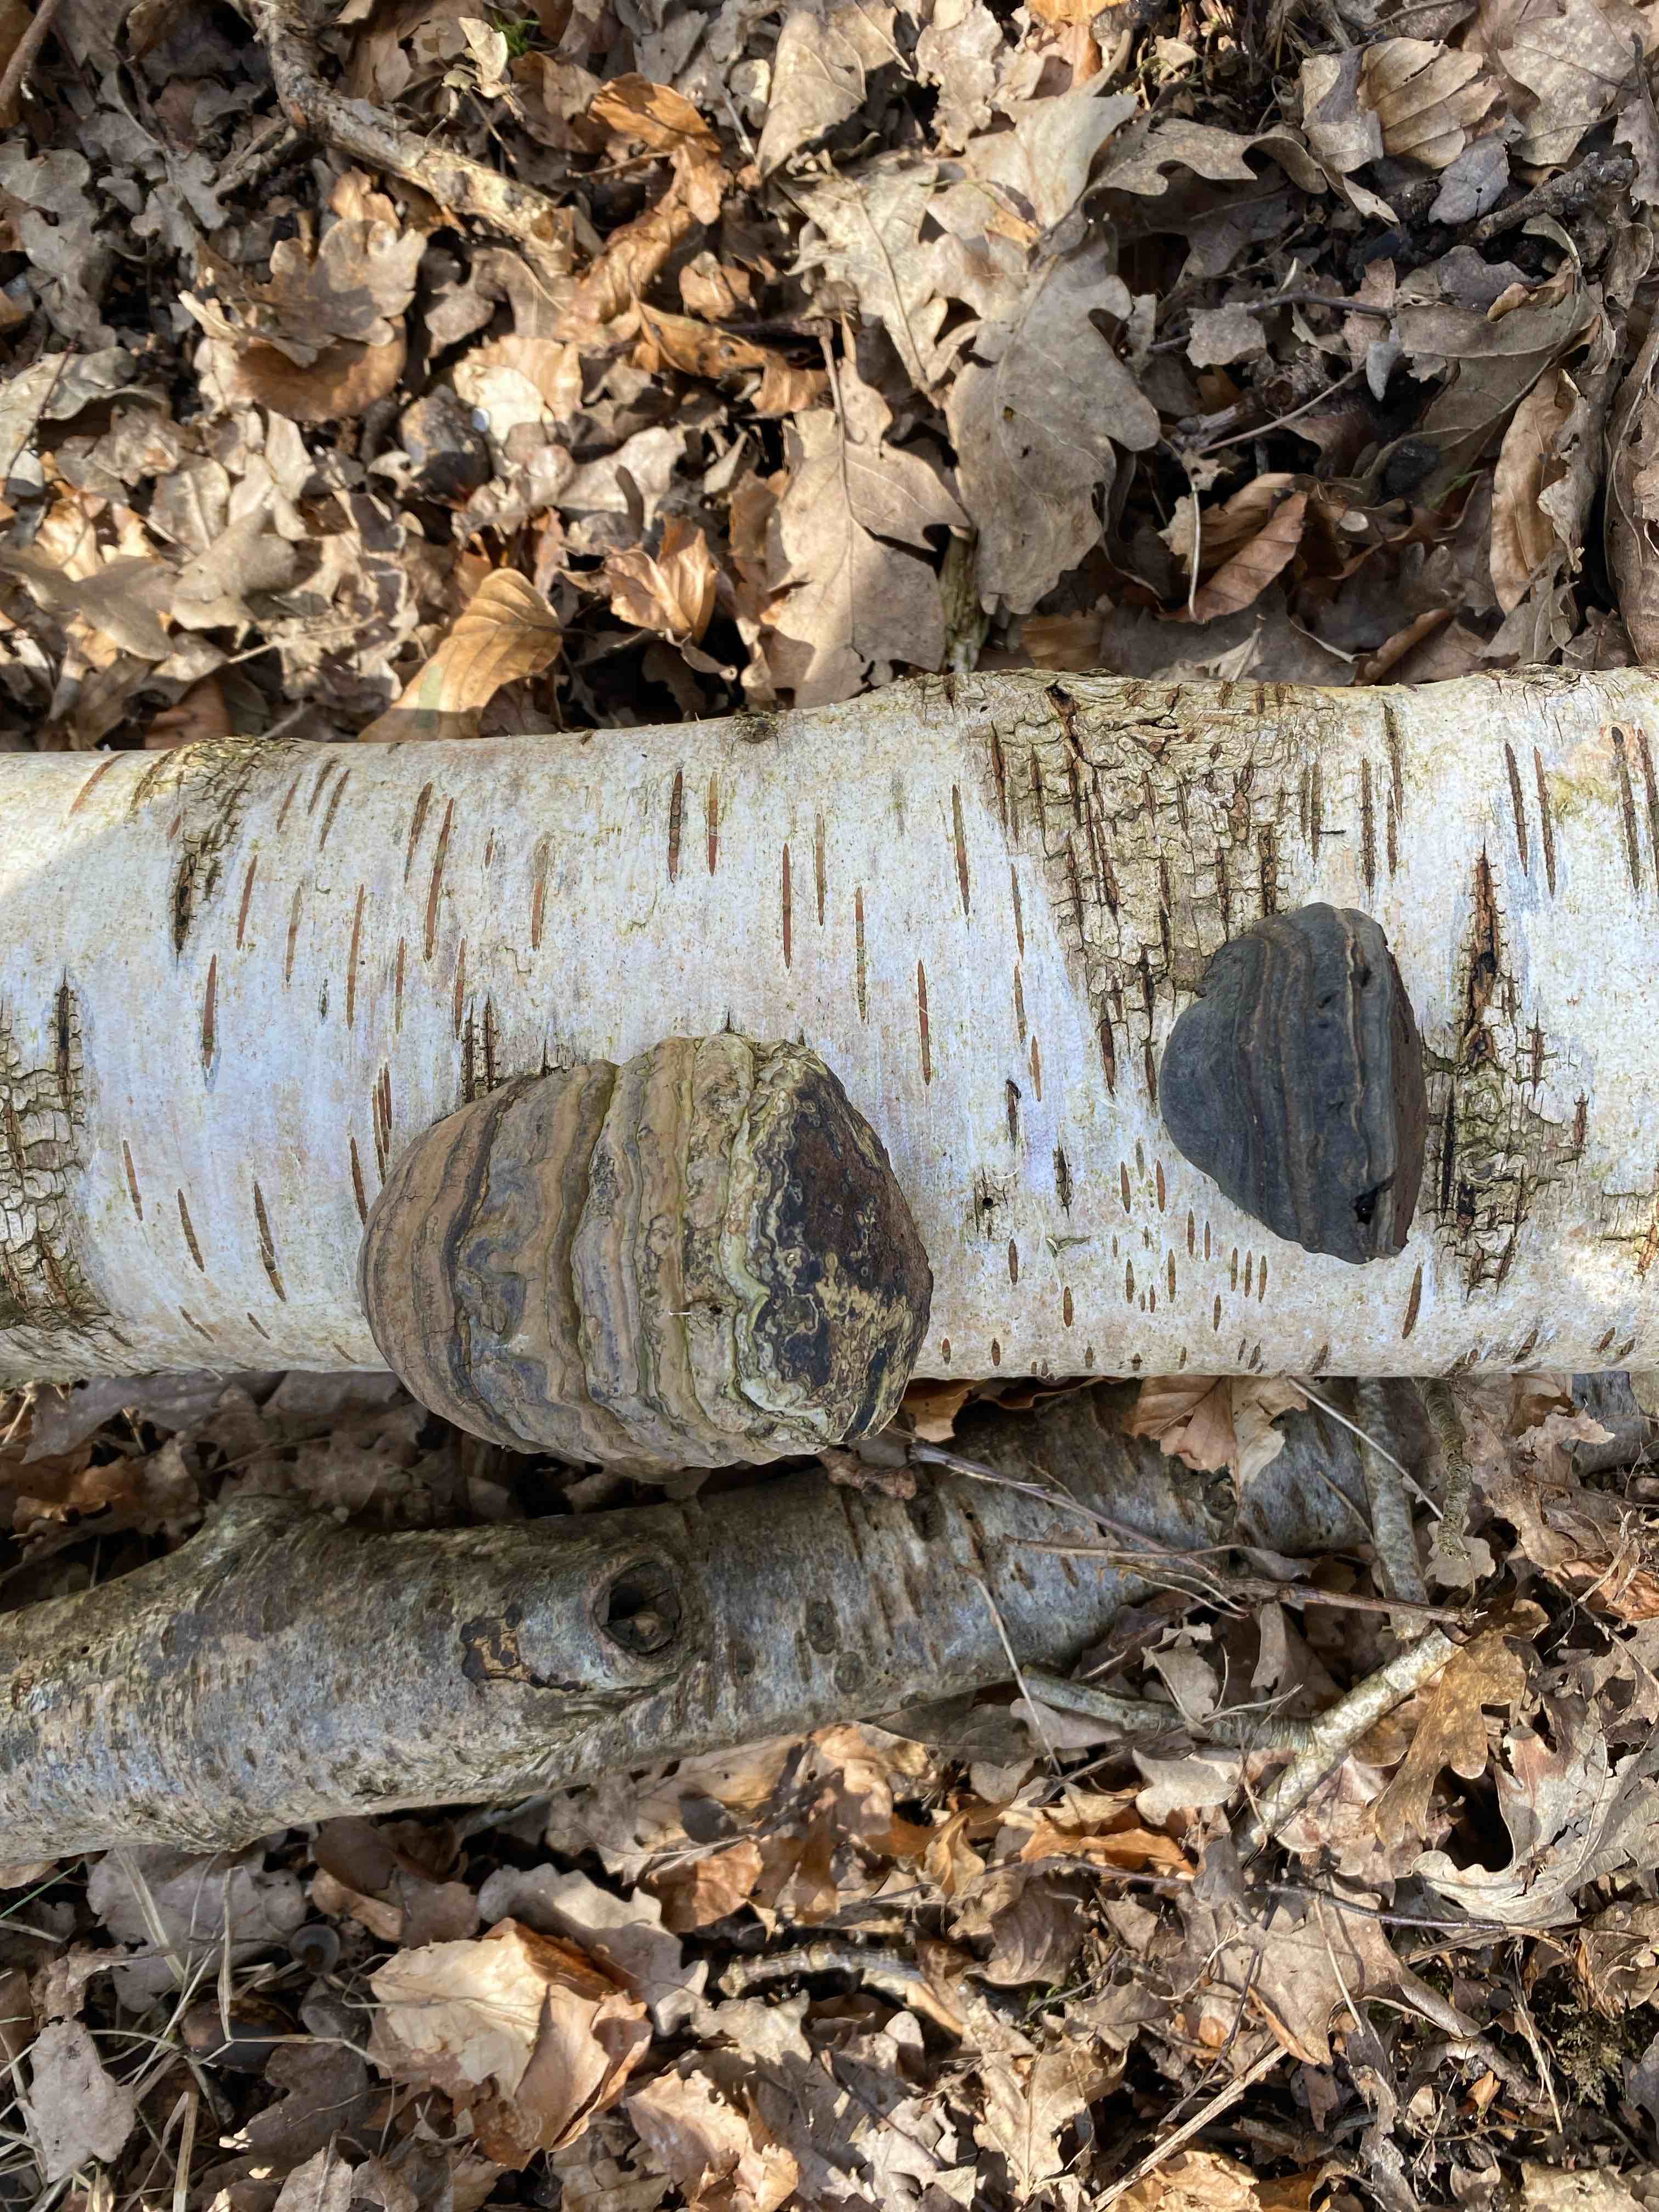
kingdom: Fungi
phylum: Basidiomycota
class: Agaricomycetes
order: Polyporales
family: Polyporaceae
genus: Fomes
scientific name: Fomes fomentarius
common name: tøndersvamp
